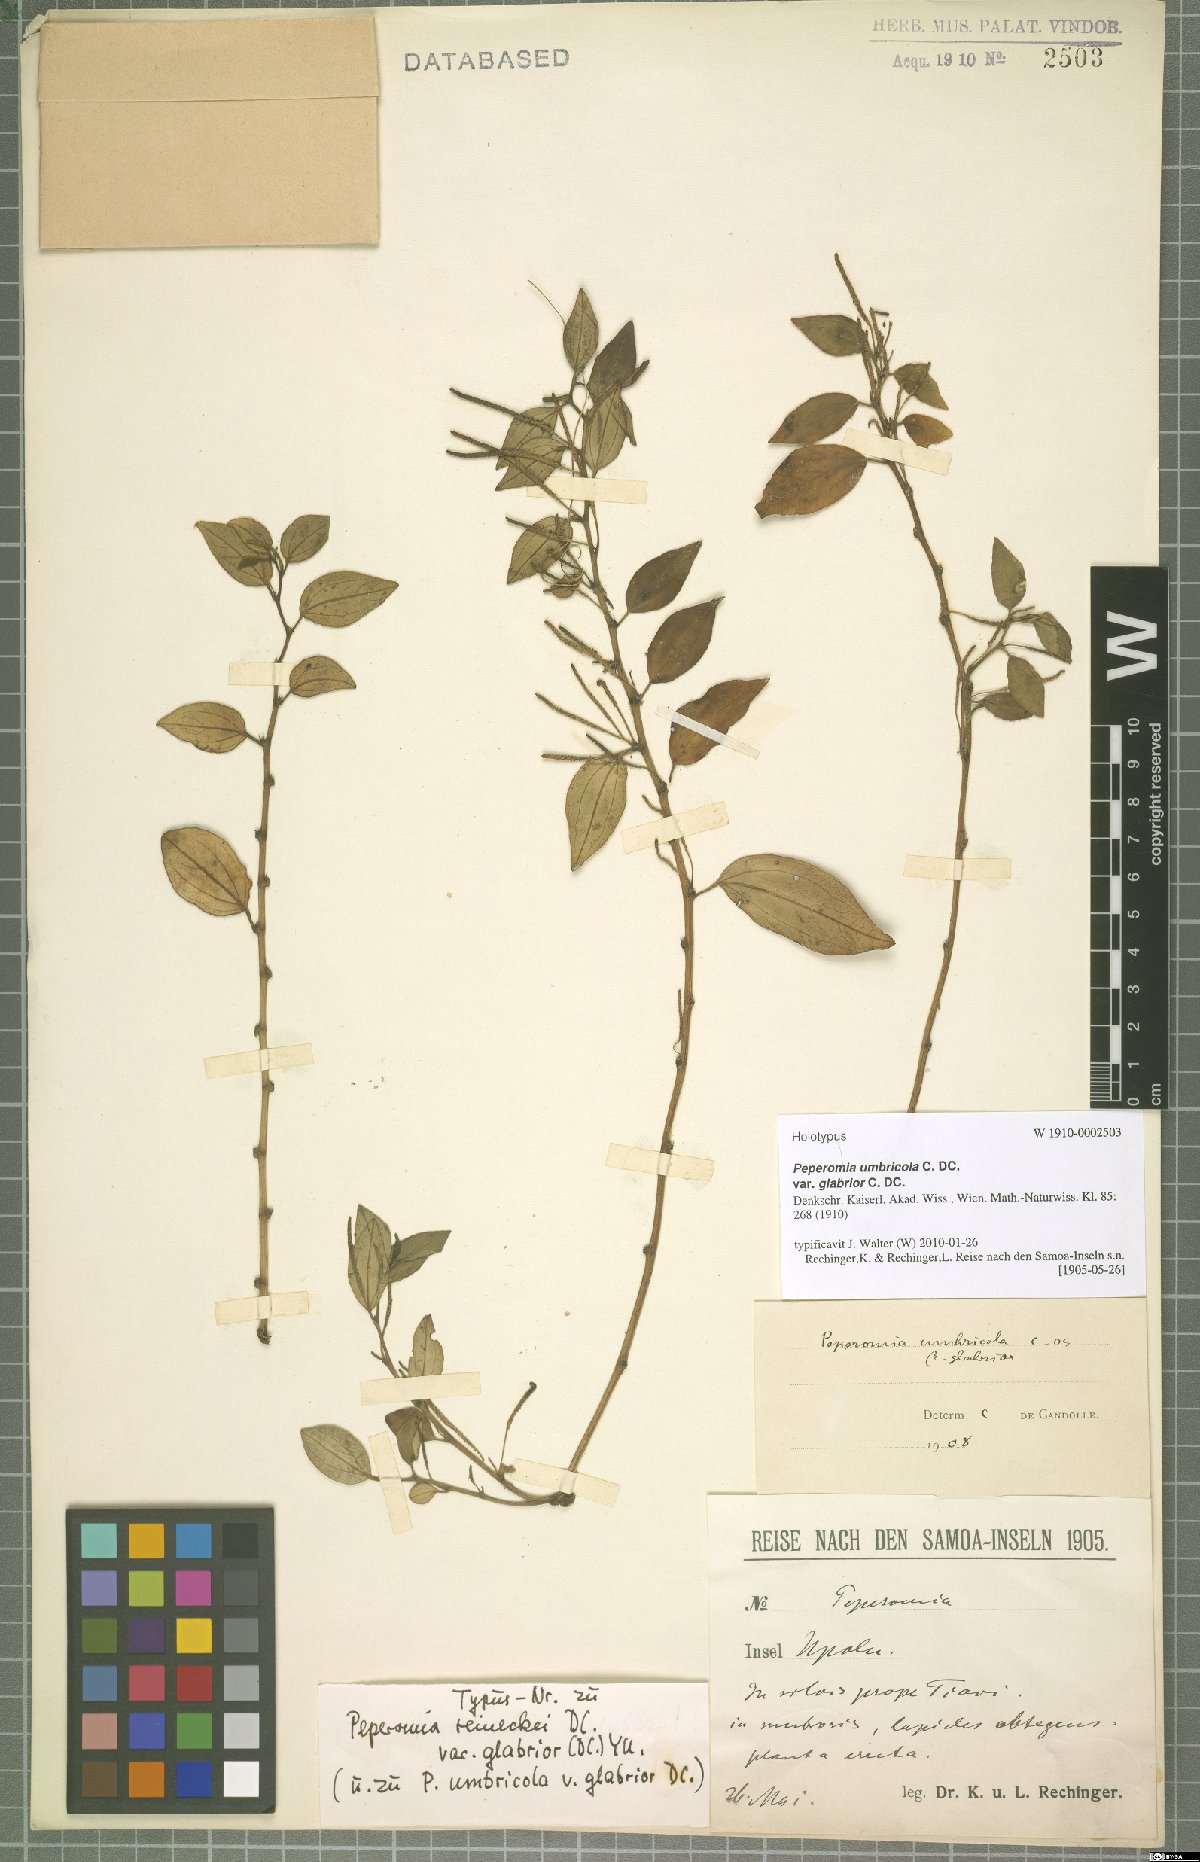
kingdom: Plantae
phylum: Tracheophyta
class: Magnoliopsida
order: Piperales
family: Piperaceae
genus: Peperomia
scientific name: Peperomia reineckei
